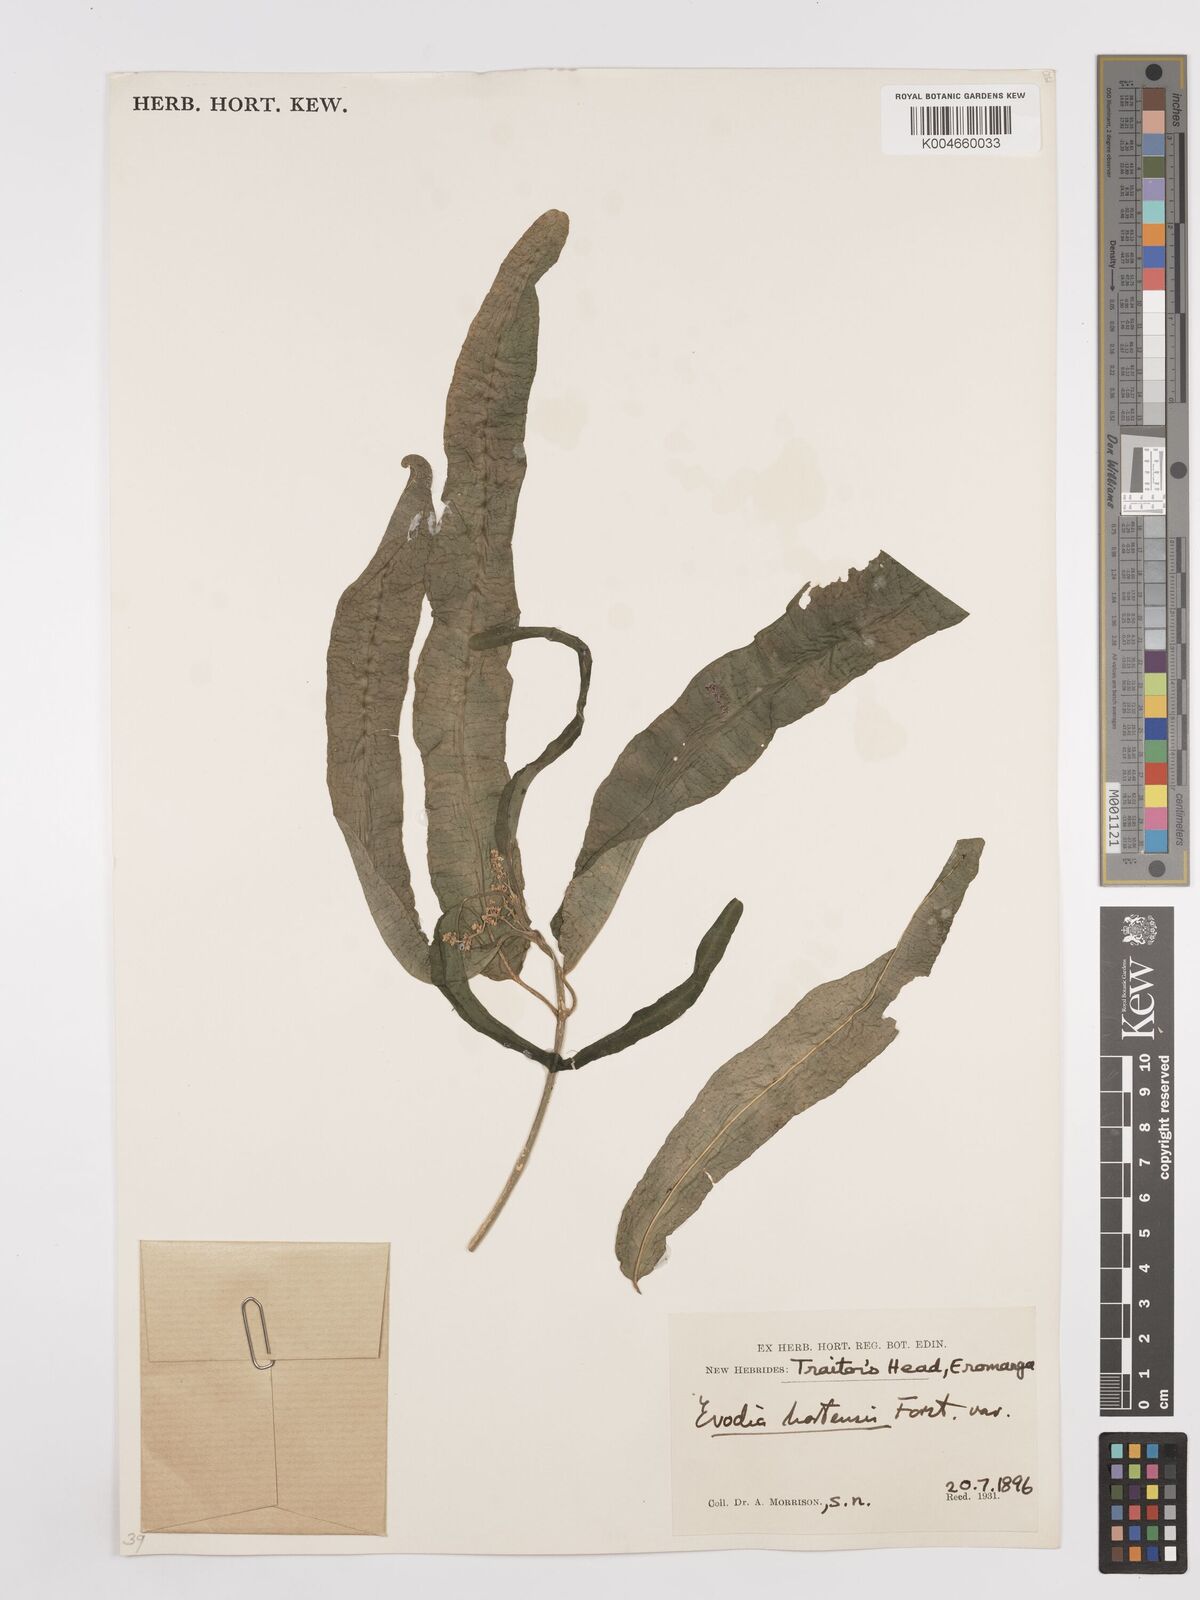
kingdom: Plantae
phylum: Tracheophyta
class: Magnoliopsida
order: Sapindales
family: Rutaceae
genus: Euodia
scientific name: Euodia hortensis
